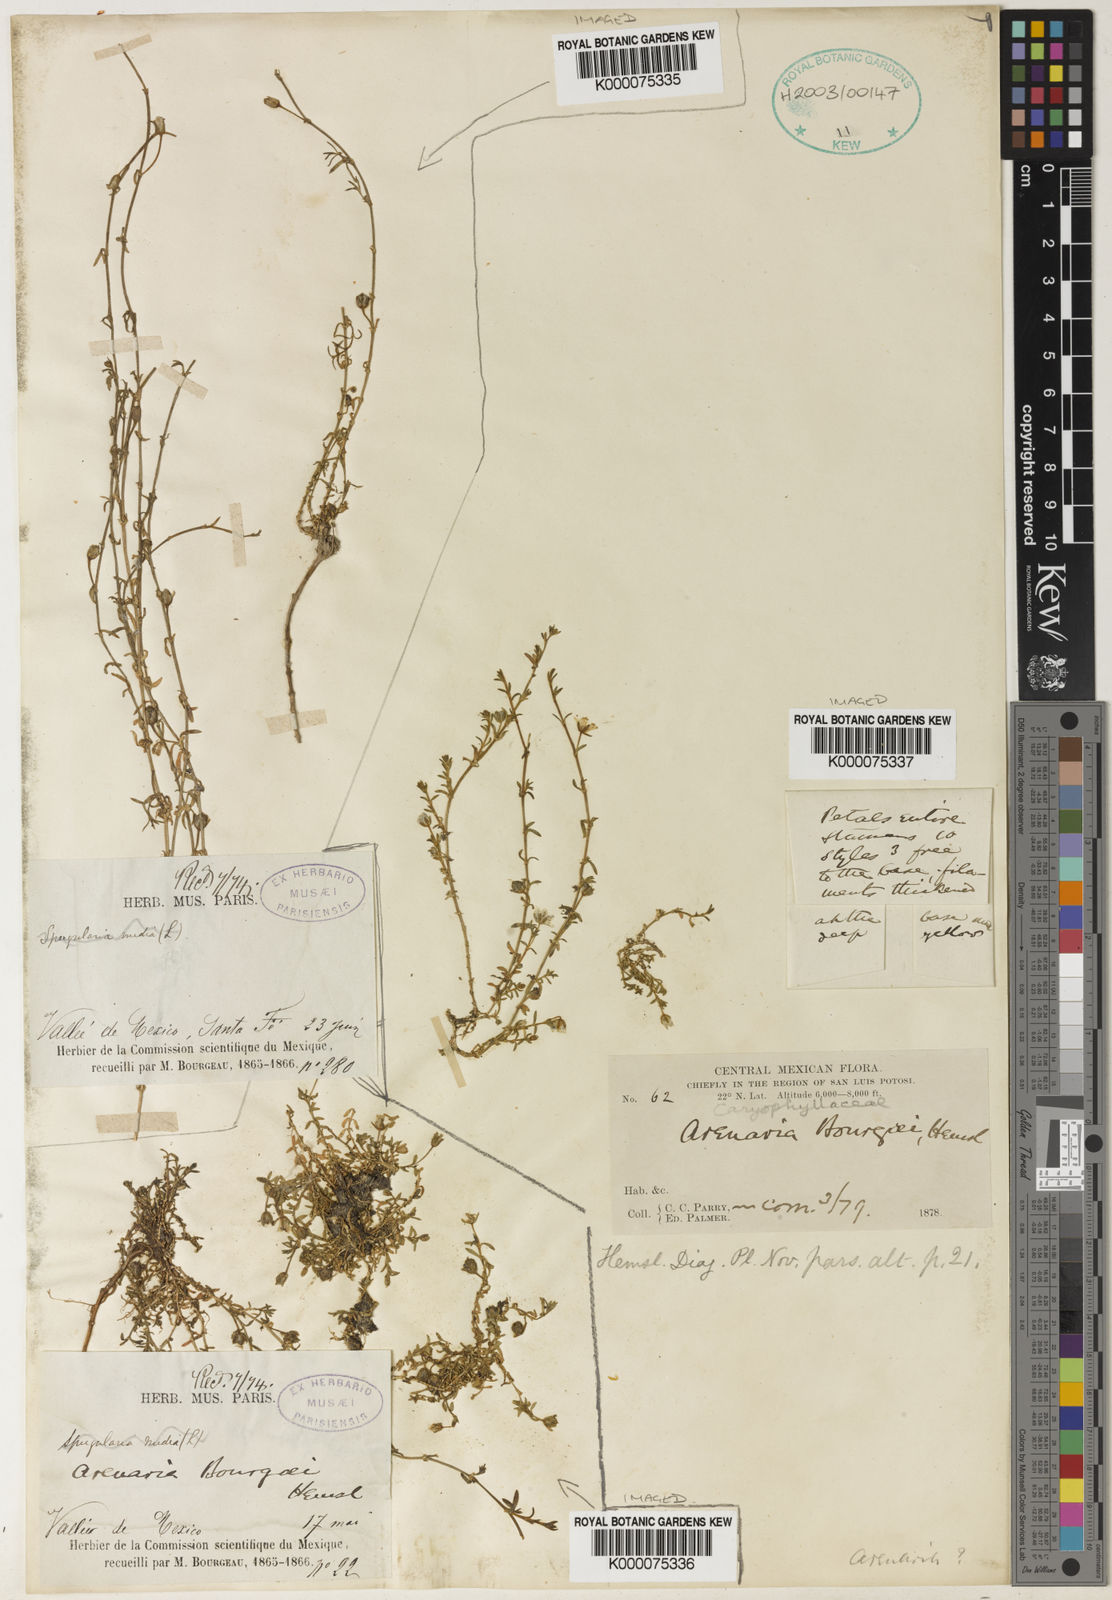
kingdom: Plantae
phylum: Tracheophyta
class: Magnoliopsida
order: Caryophyllales
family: Caryophyllaceae
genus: Arenaria
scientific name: Arenaria bourgaei
